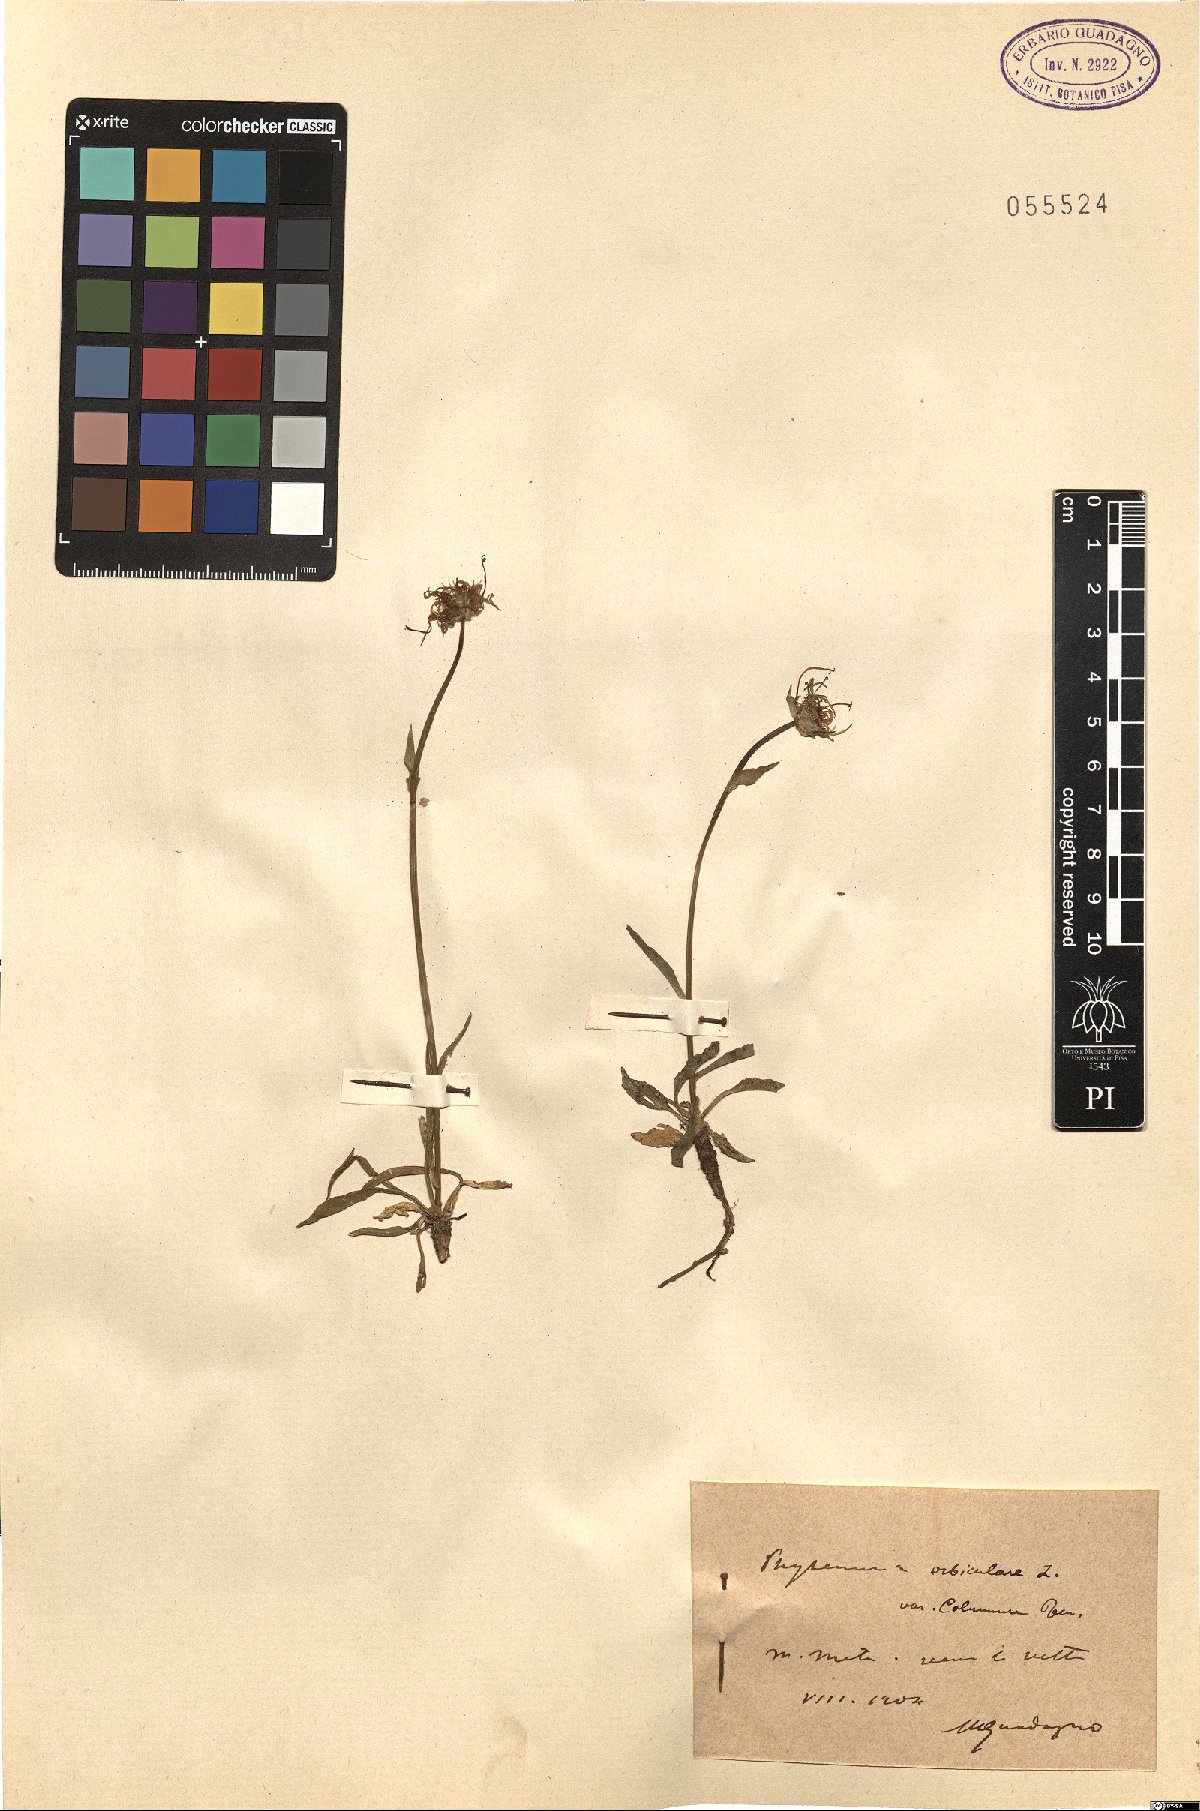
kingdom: Plantae
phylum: Tracheophyta
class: Magnoliopsida
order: Asterales
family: Campanulaceae
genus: Phyteuma
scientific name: Phyteuma orbiculare
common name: Round-headed rampion
